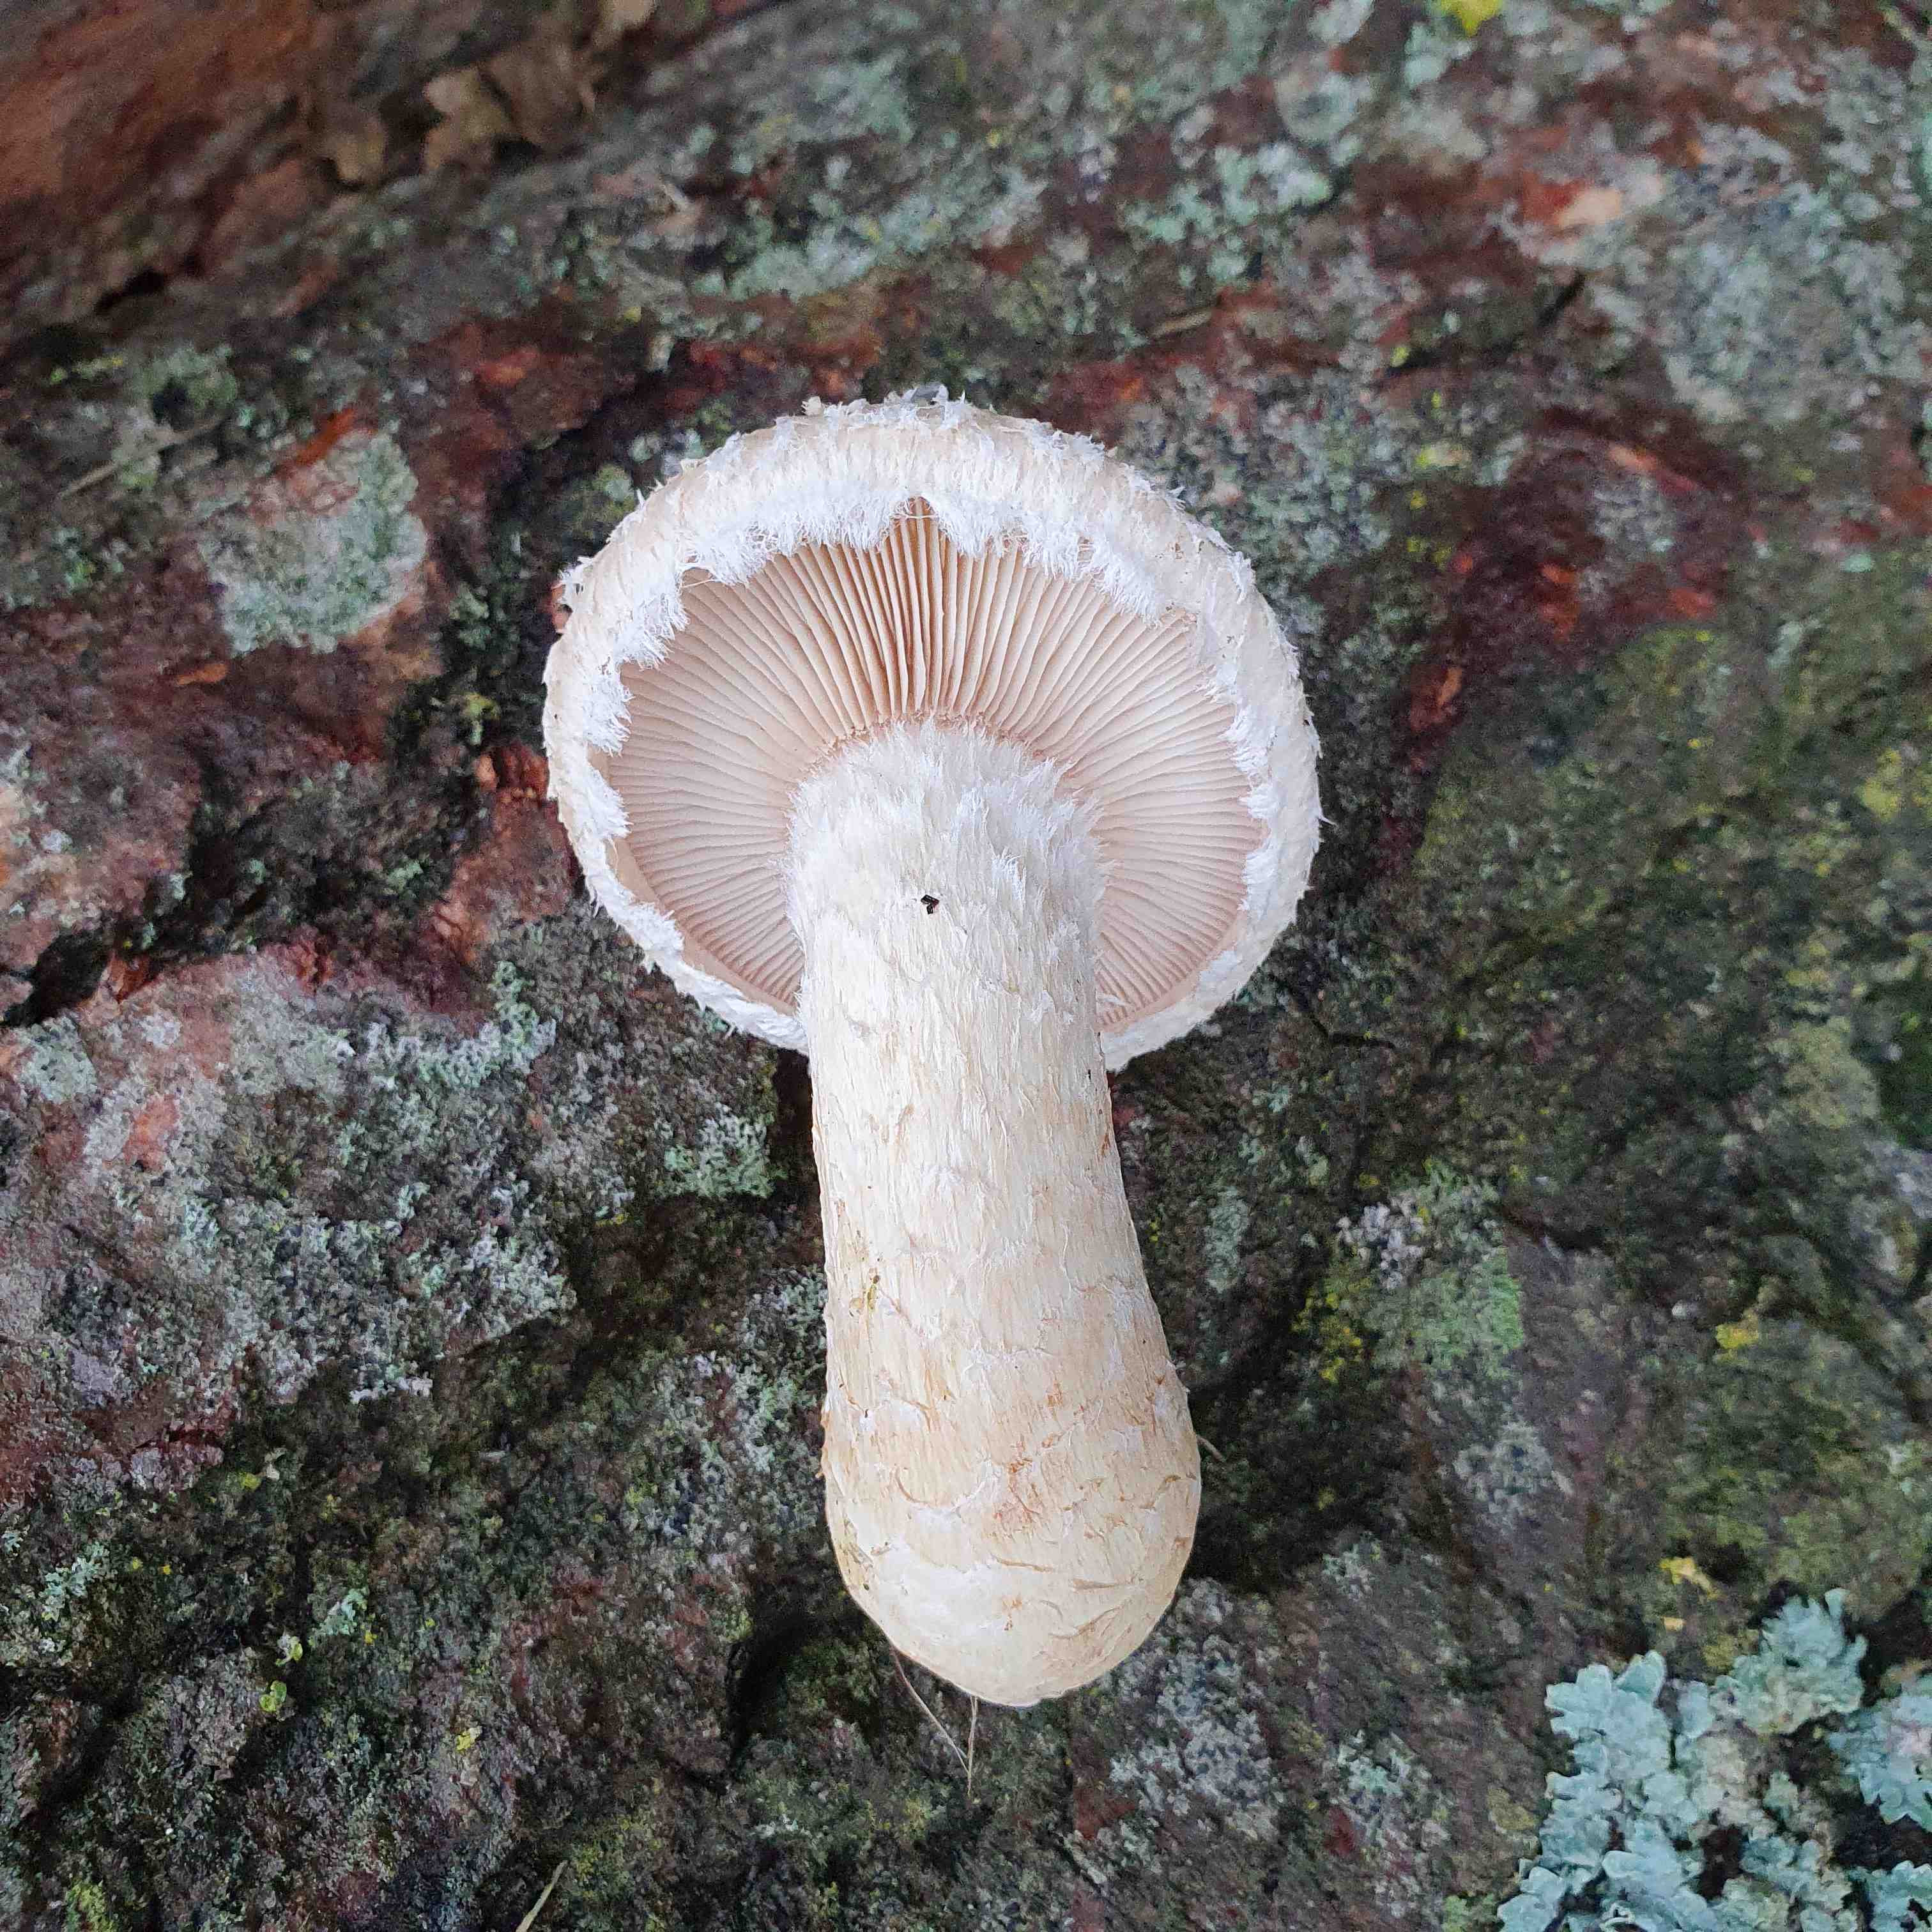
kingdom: Fungi
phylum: Basidiomycota
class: Agaricomycetes
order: Agaricales
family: Strophariaceae
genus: Pholiota
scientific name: Pholiota populnea
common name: poppel-kæmpeskælhat
